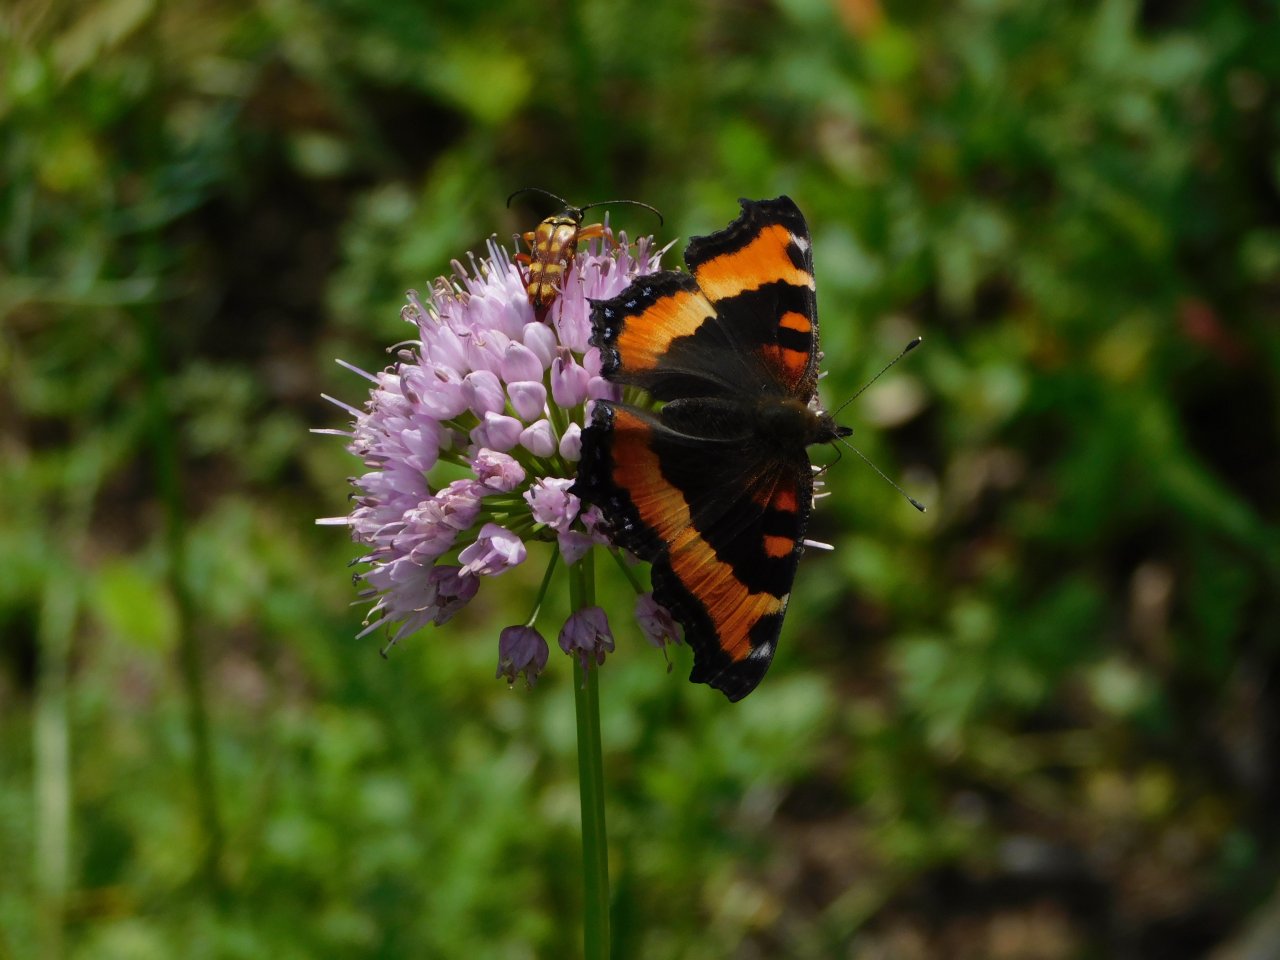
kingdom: Animalia
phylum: Arthropoda
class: Insecta
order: Lepidoptera
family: Nymphalidae
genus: Aglais
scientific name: Aglais milberti
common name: Milbert's Tortoiseshell
